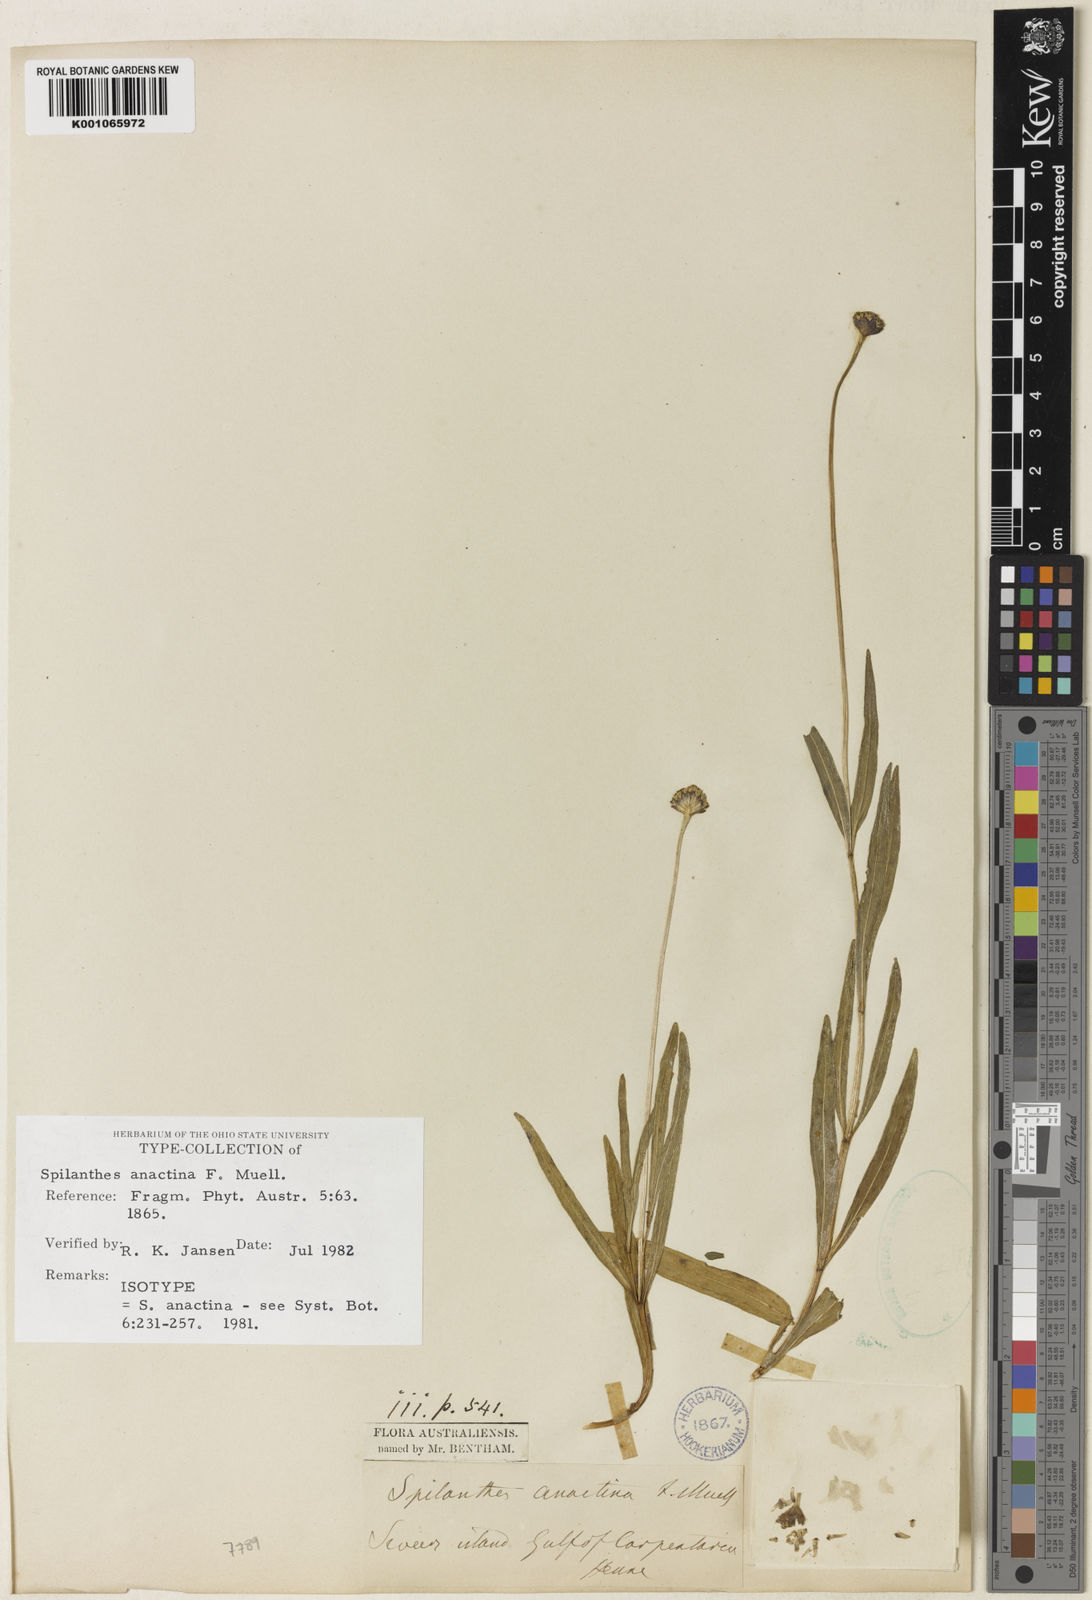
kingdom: Plantae
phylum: Tracheophyta
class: Magnoliopsida
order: Asterales
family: Asteraceae
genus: Spilanthes
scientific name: Spilanthes anactina
